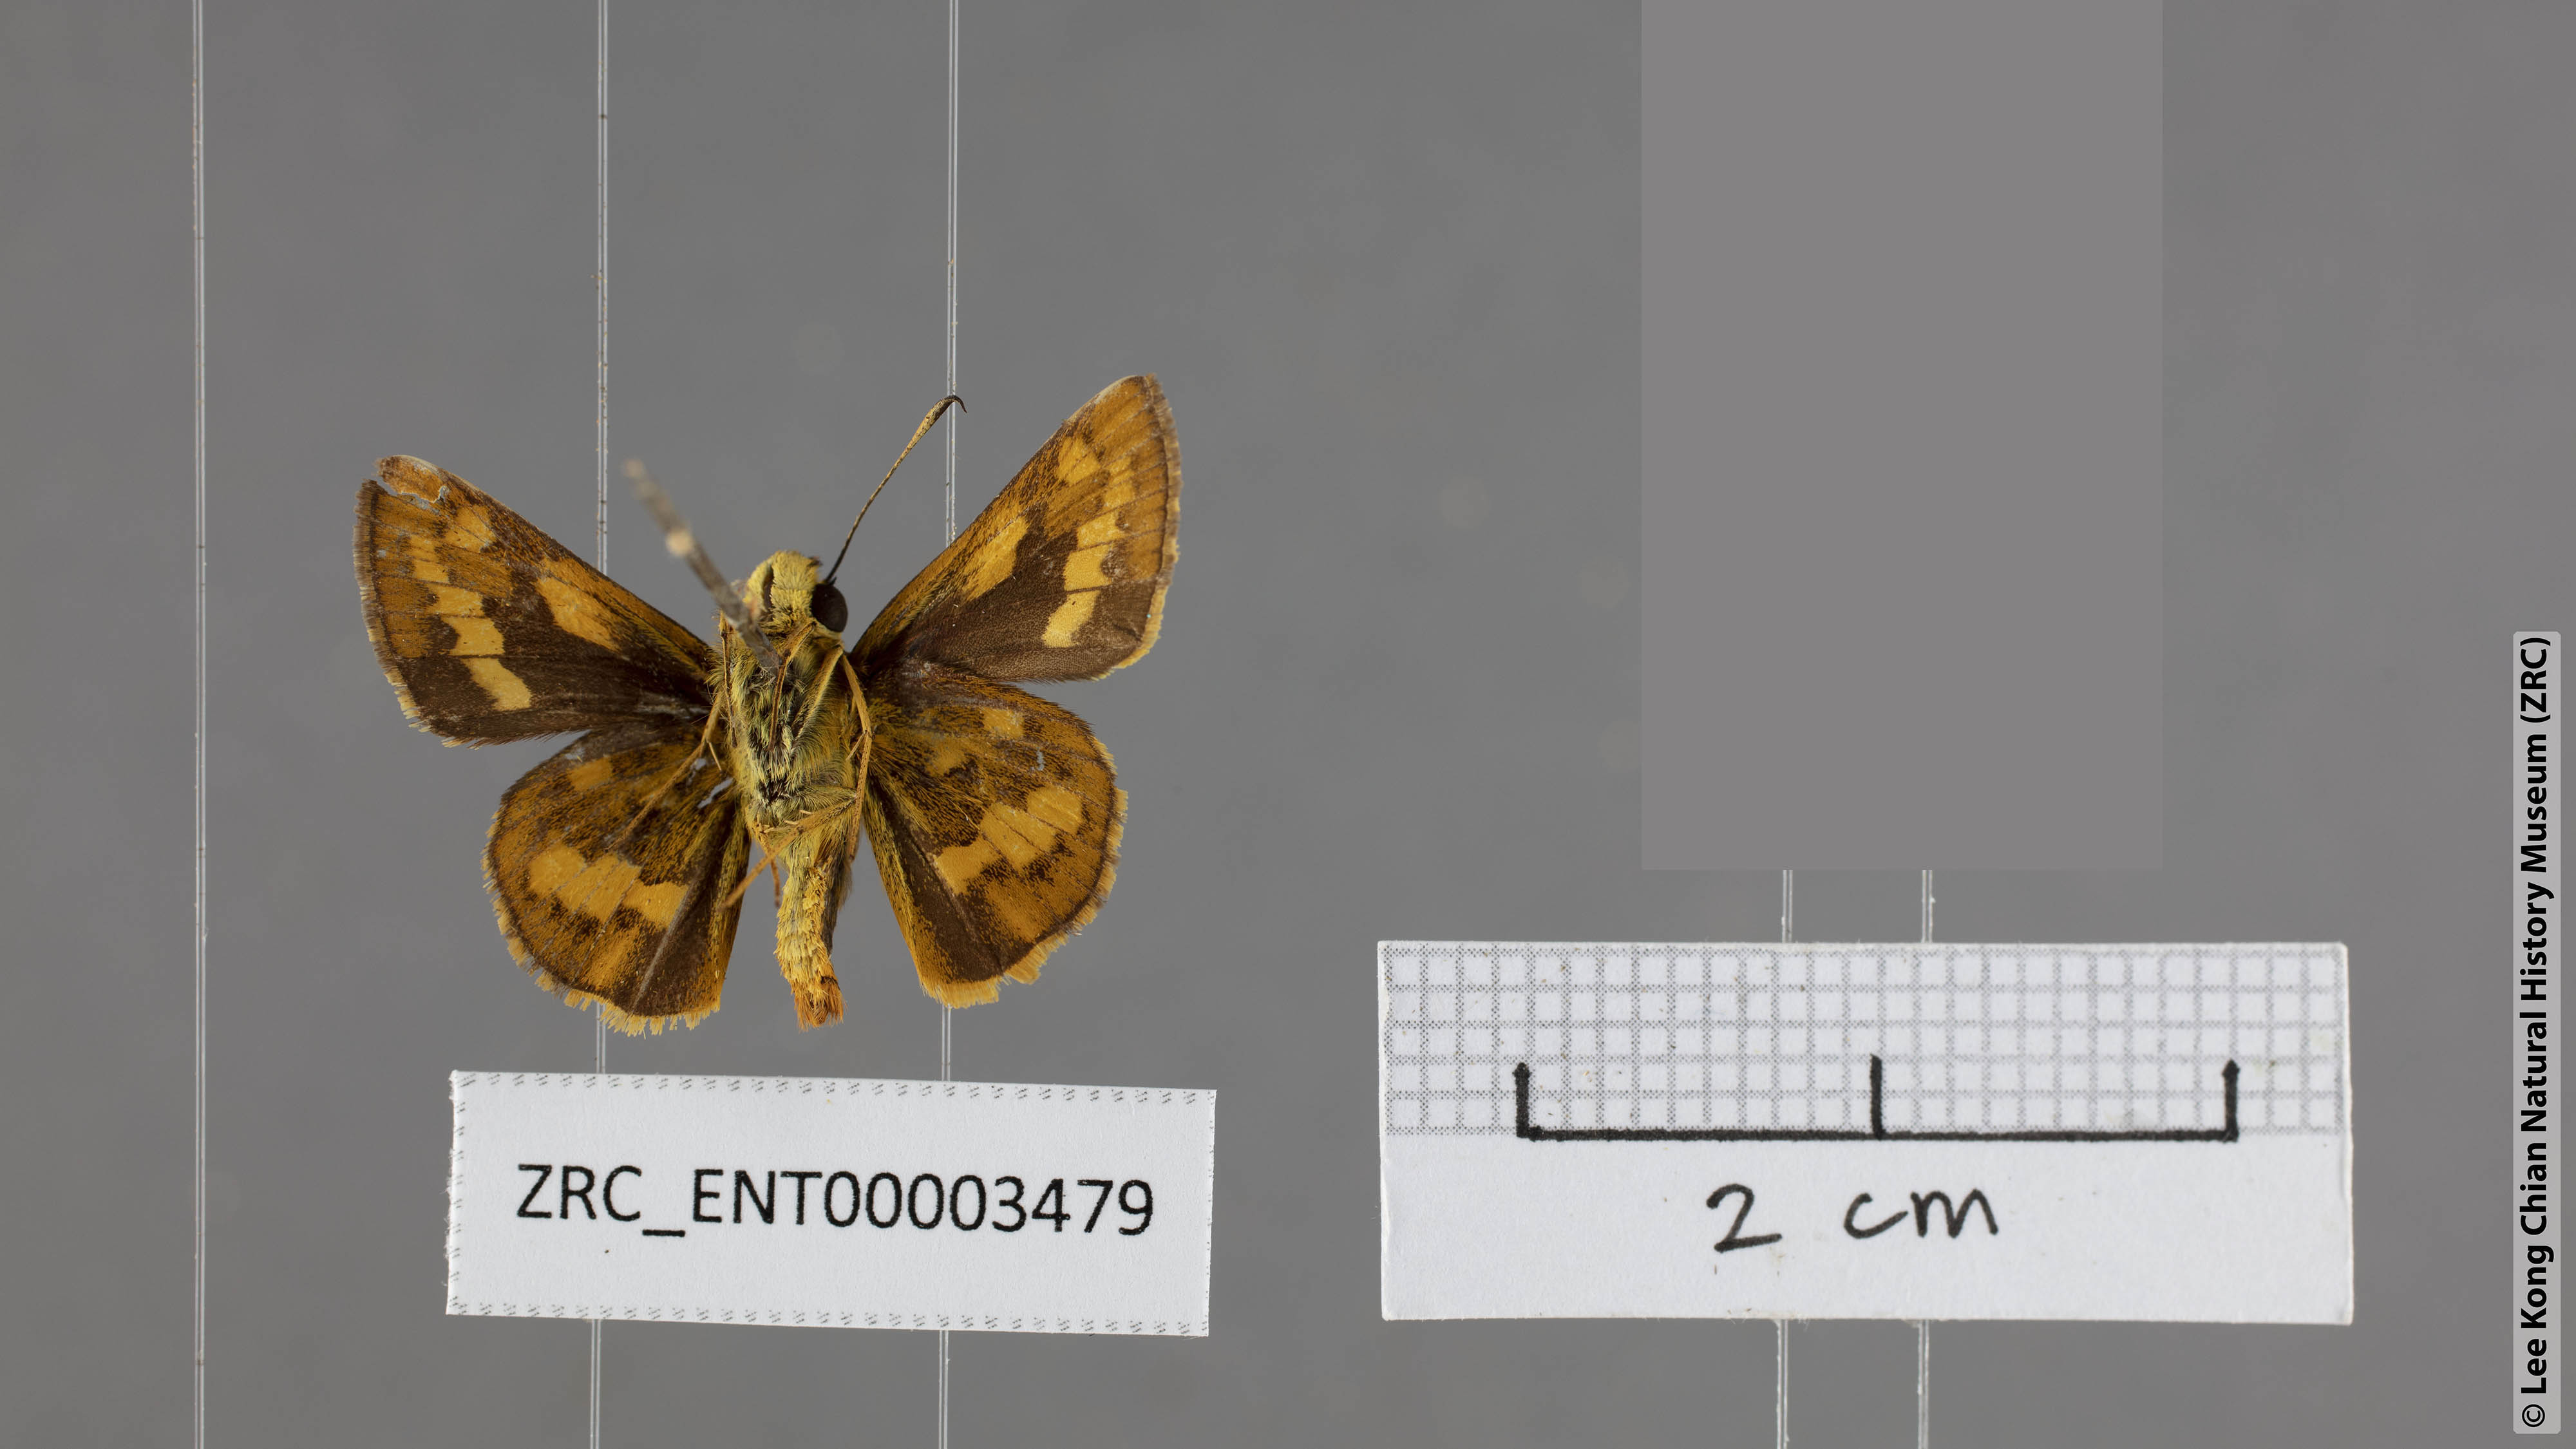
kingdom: Animalia
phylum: Arthropoda
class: Insecta
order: Lepidoptera
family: Hesperiidae
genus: Potanthus
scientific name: Potanthus mingo
